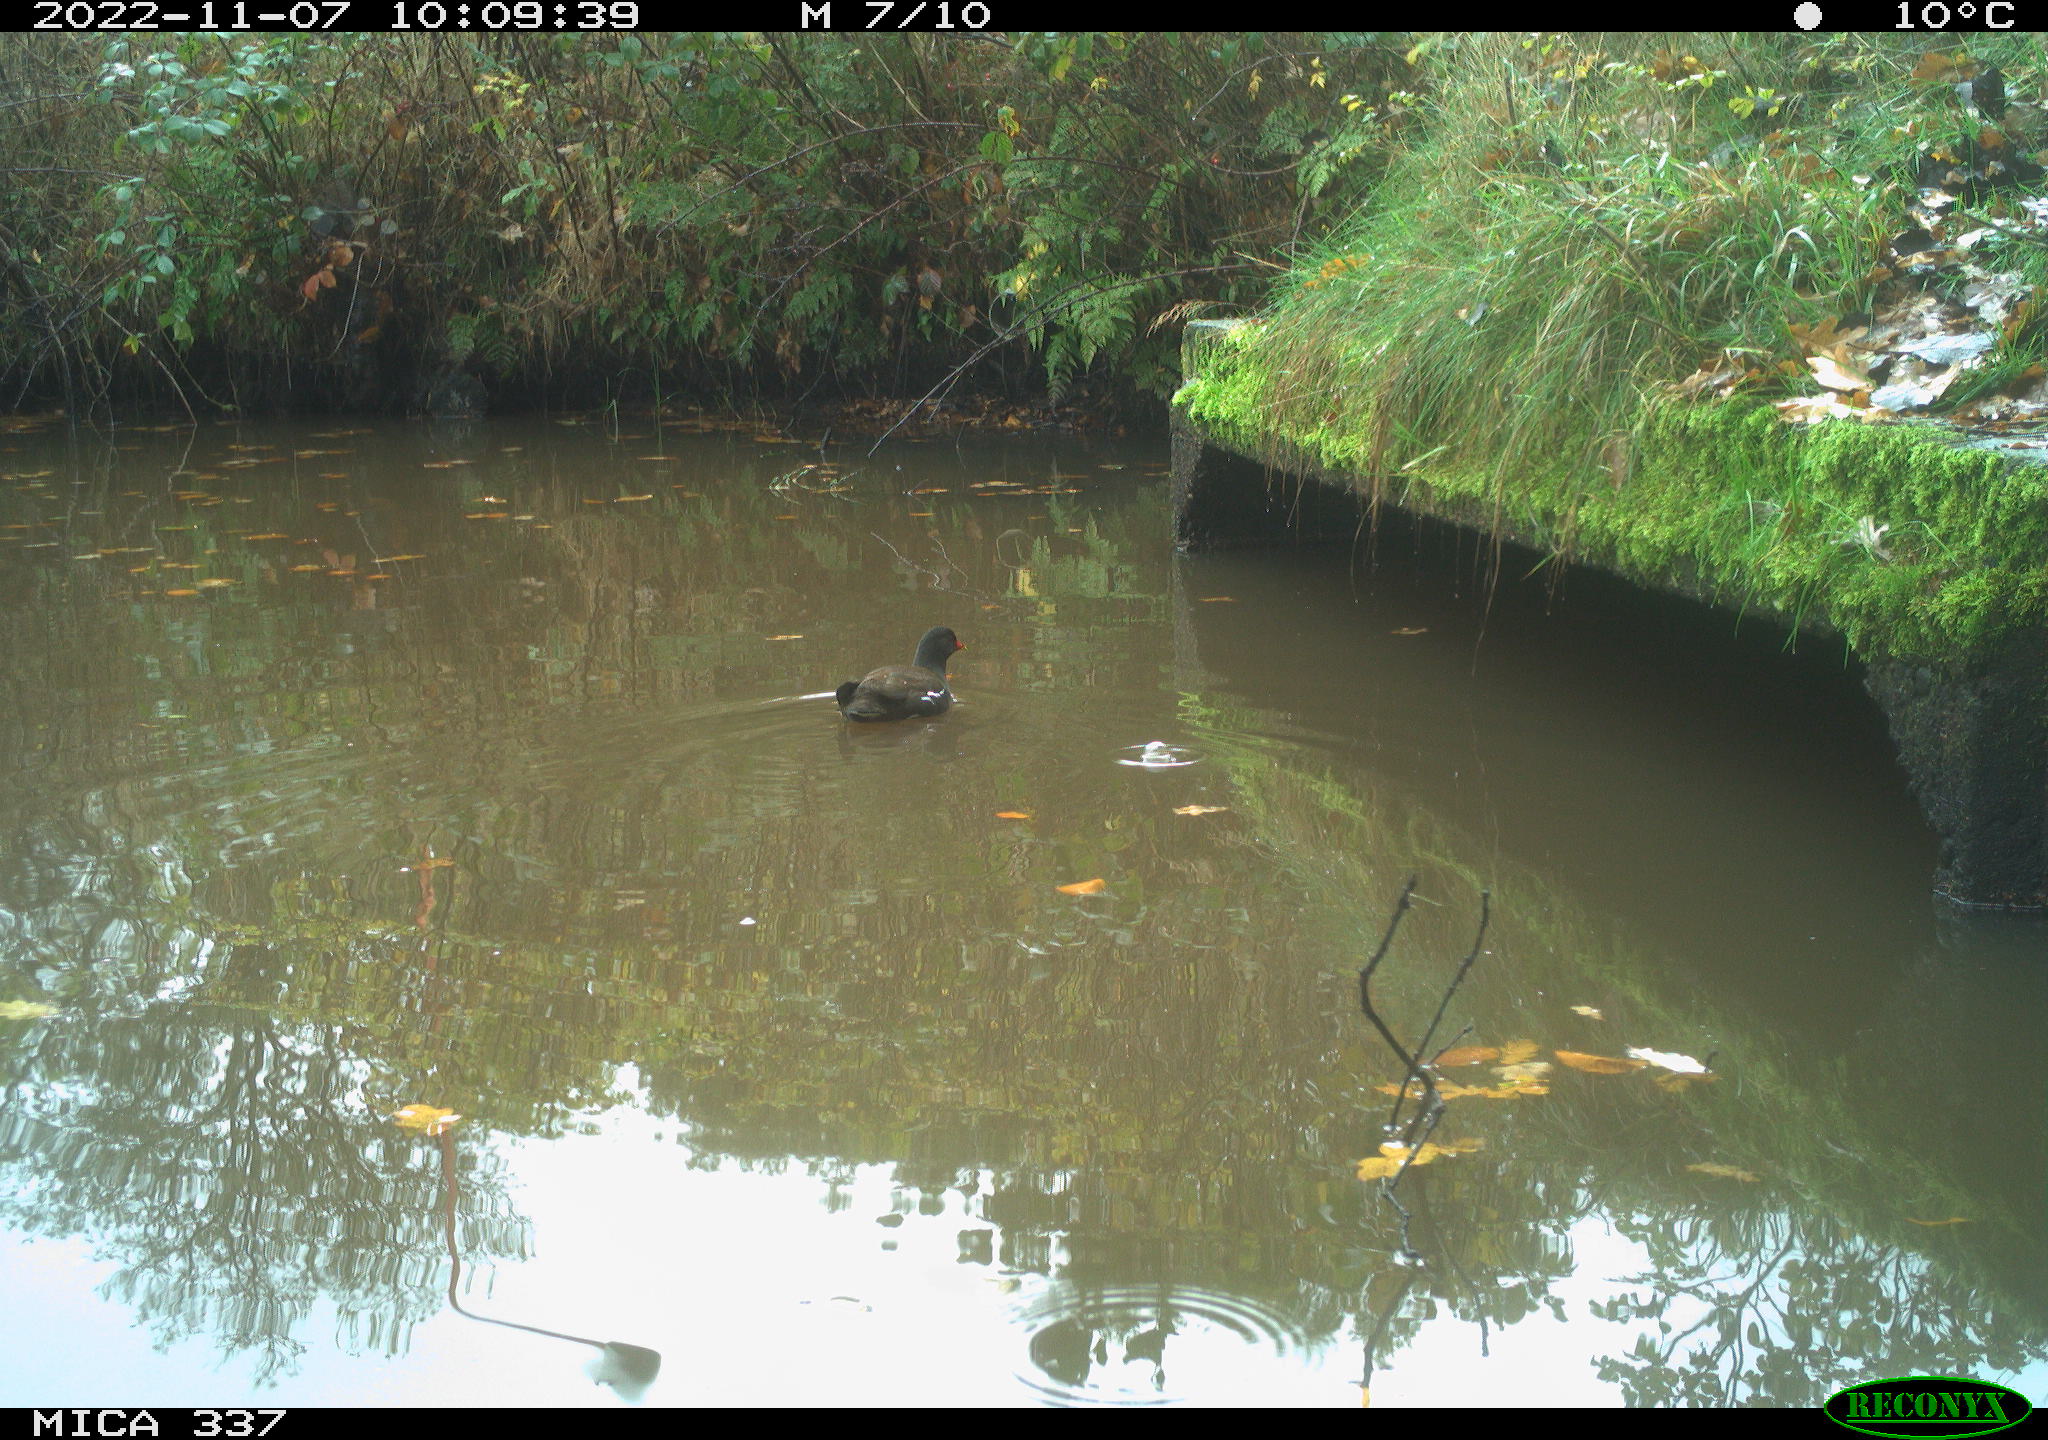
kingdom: Animalia
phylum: Chordata
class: Aves
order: Gruiformes
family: Rallidae
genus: Gallinula
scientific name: Gallinula chloropus
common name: Common moorhen
